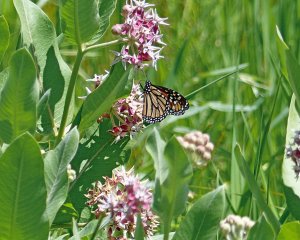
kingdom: Animalia
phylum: Arthropoda
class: Insecta
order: Lepidoptera
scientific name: Lepidoptera
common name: Butterflies
